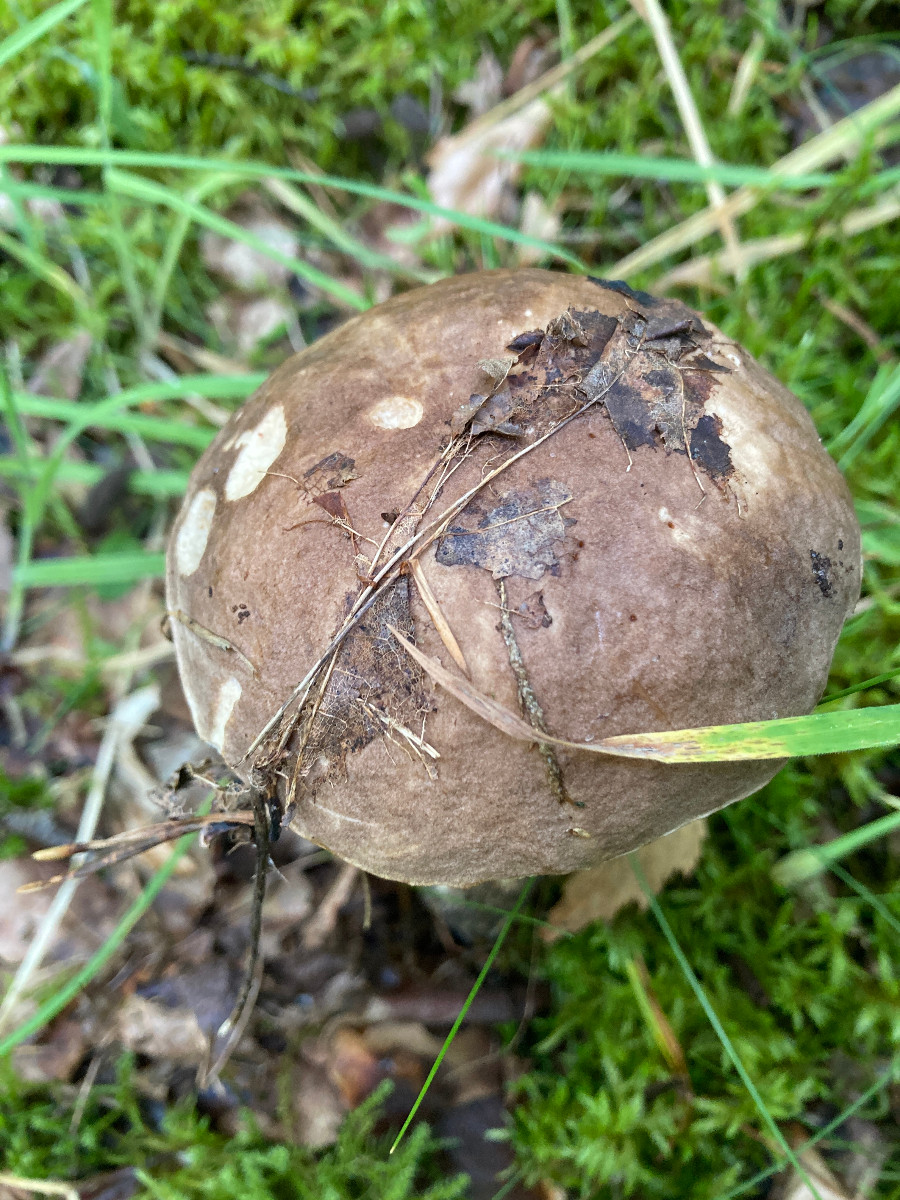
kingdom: Fungi
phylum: Basidiomycota
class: Agaricomycetes
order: Boletales
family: Boletaceae
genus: Leccinum
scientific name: Leccinum
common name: skælrørhat
